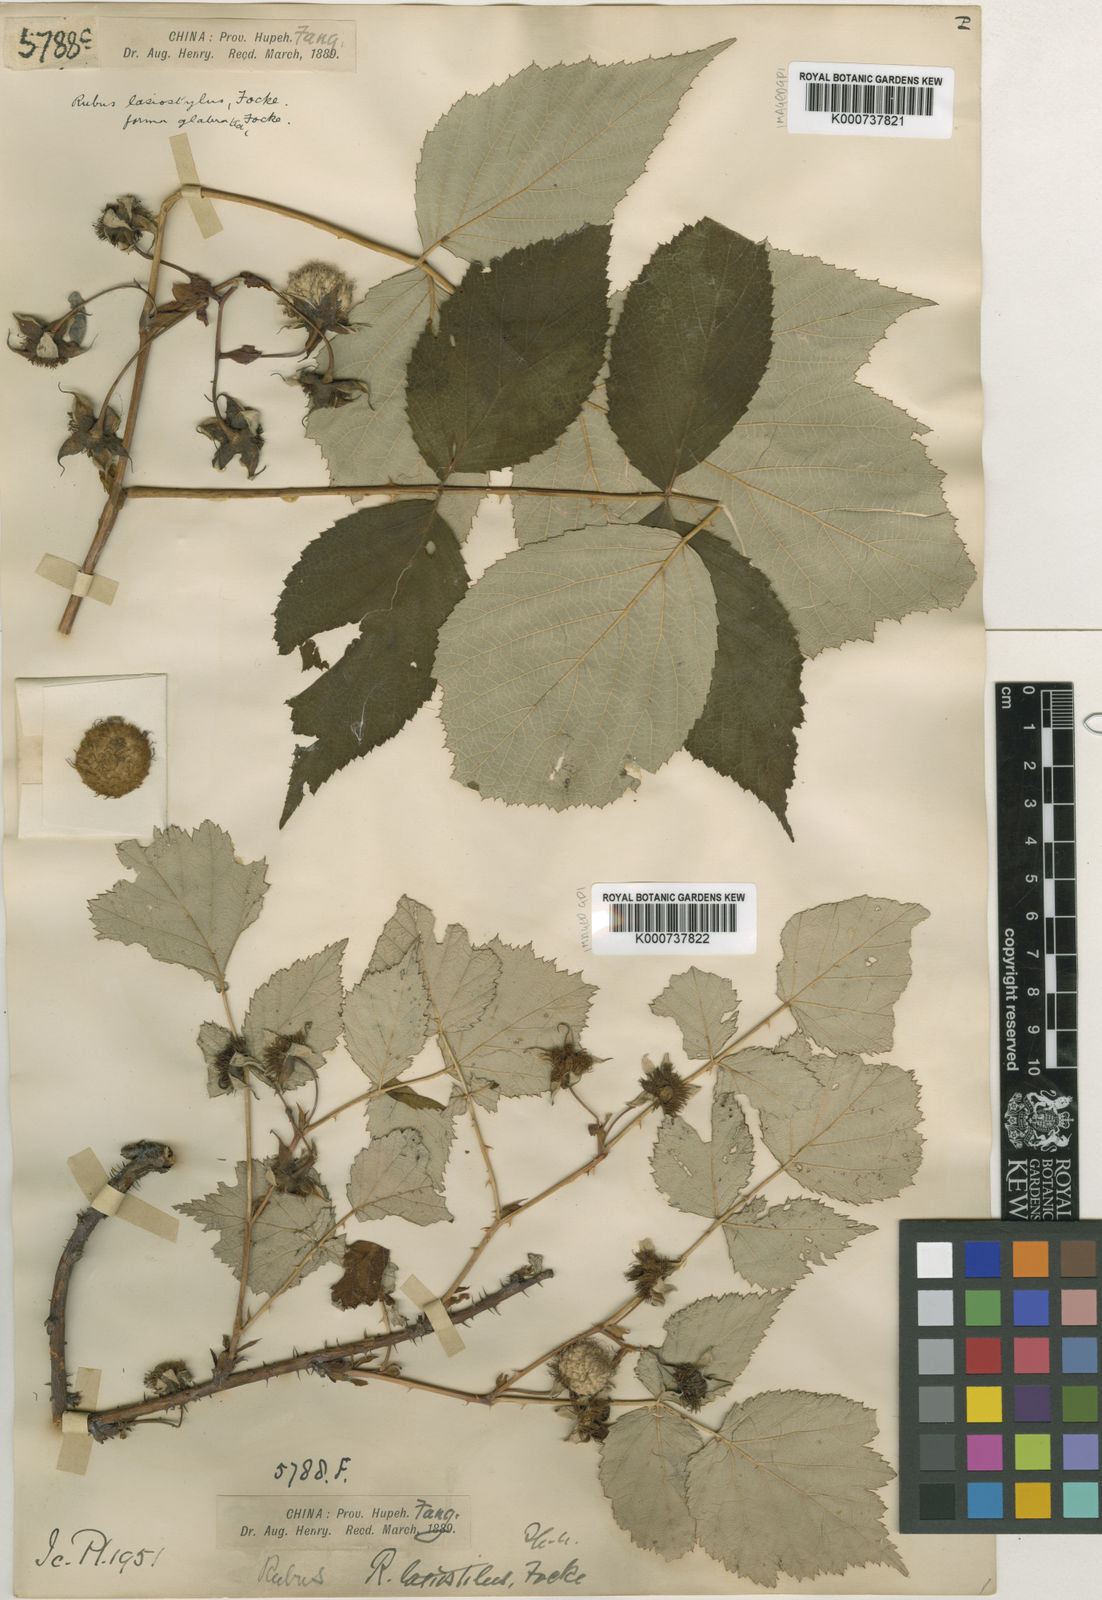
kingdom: Plantae
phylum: Tracheophyta
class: Magnoliopsida
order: Rosales
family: Rosaceae
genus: Rubus
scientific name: Rubus
